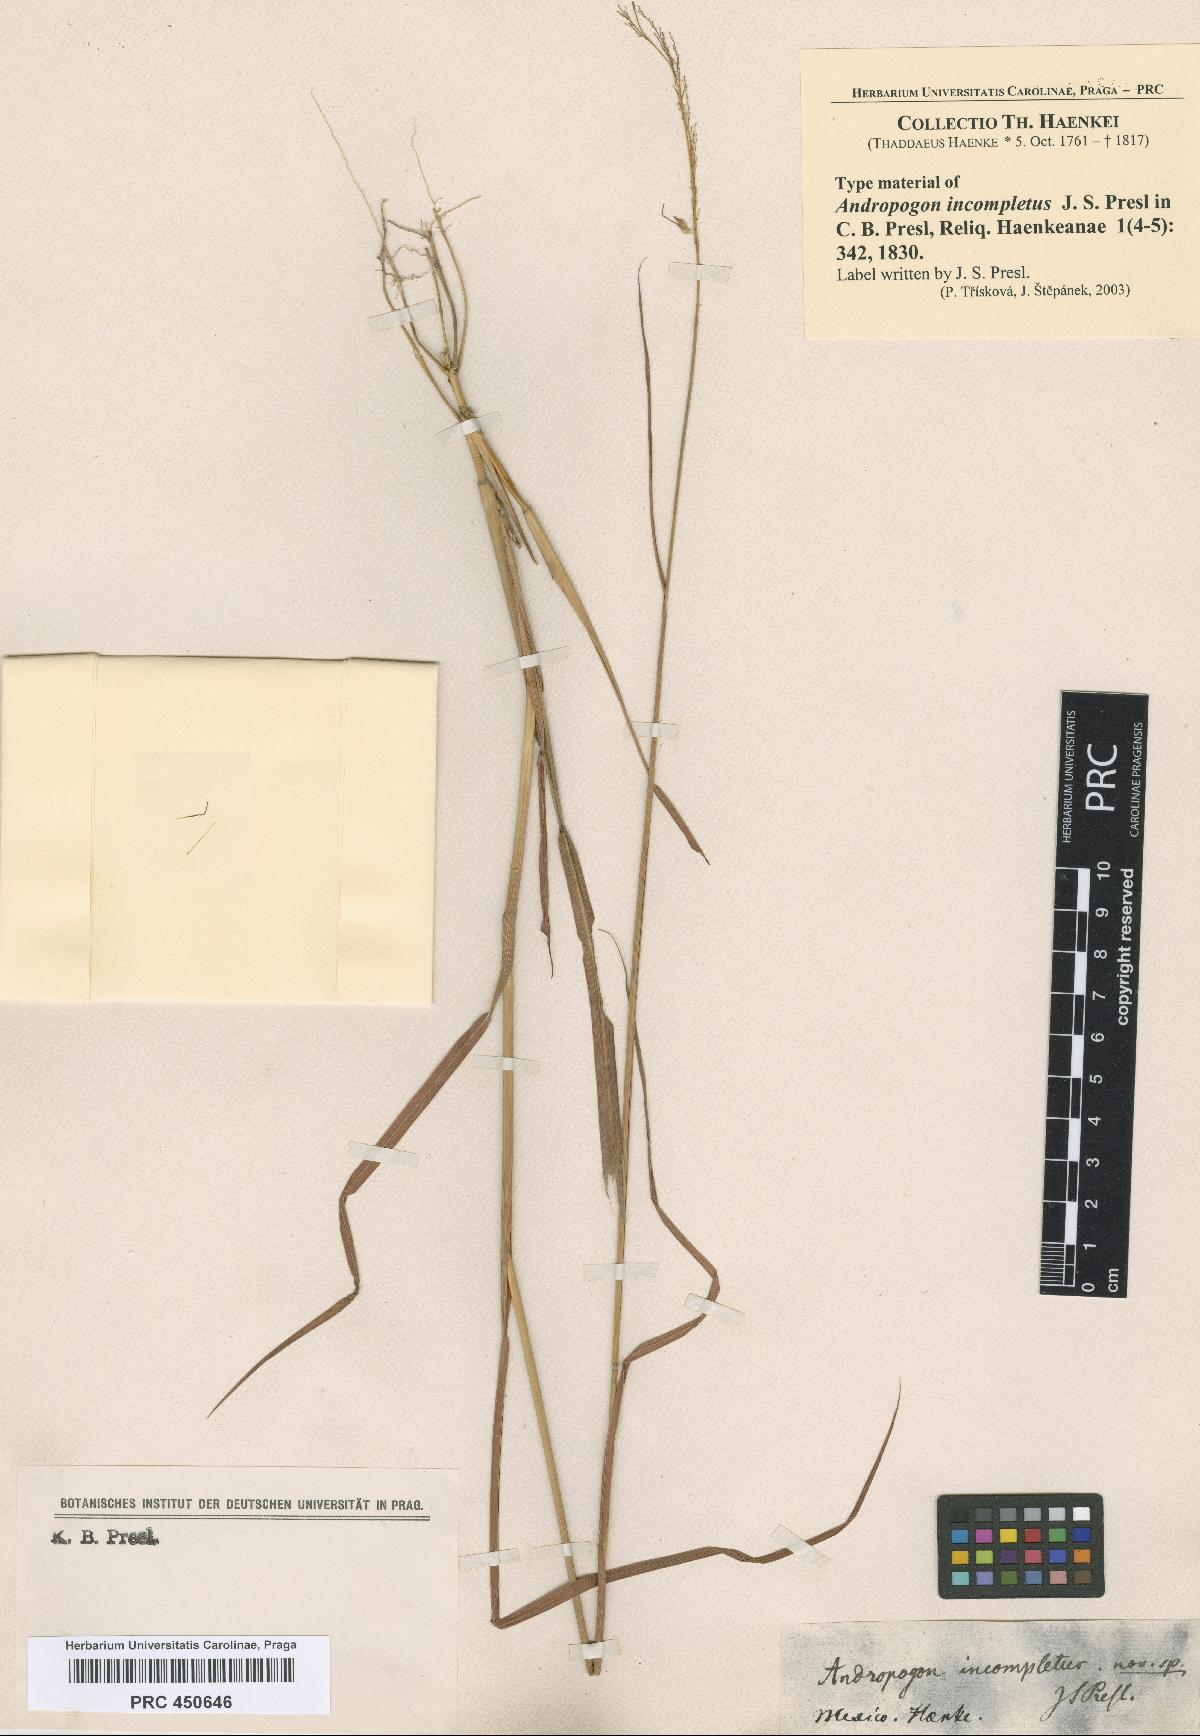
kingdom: Plantae
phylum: Tracheophyta
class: Liliopsida
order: Poales
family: Poaceae
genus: Sorghastrum
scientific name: Sorghastrum incompletum
